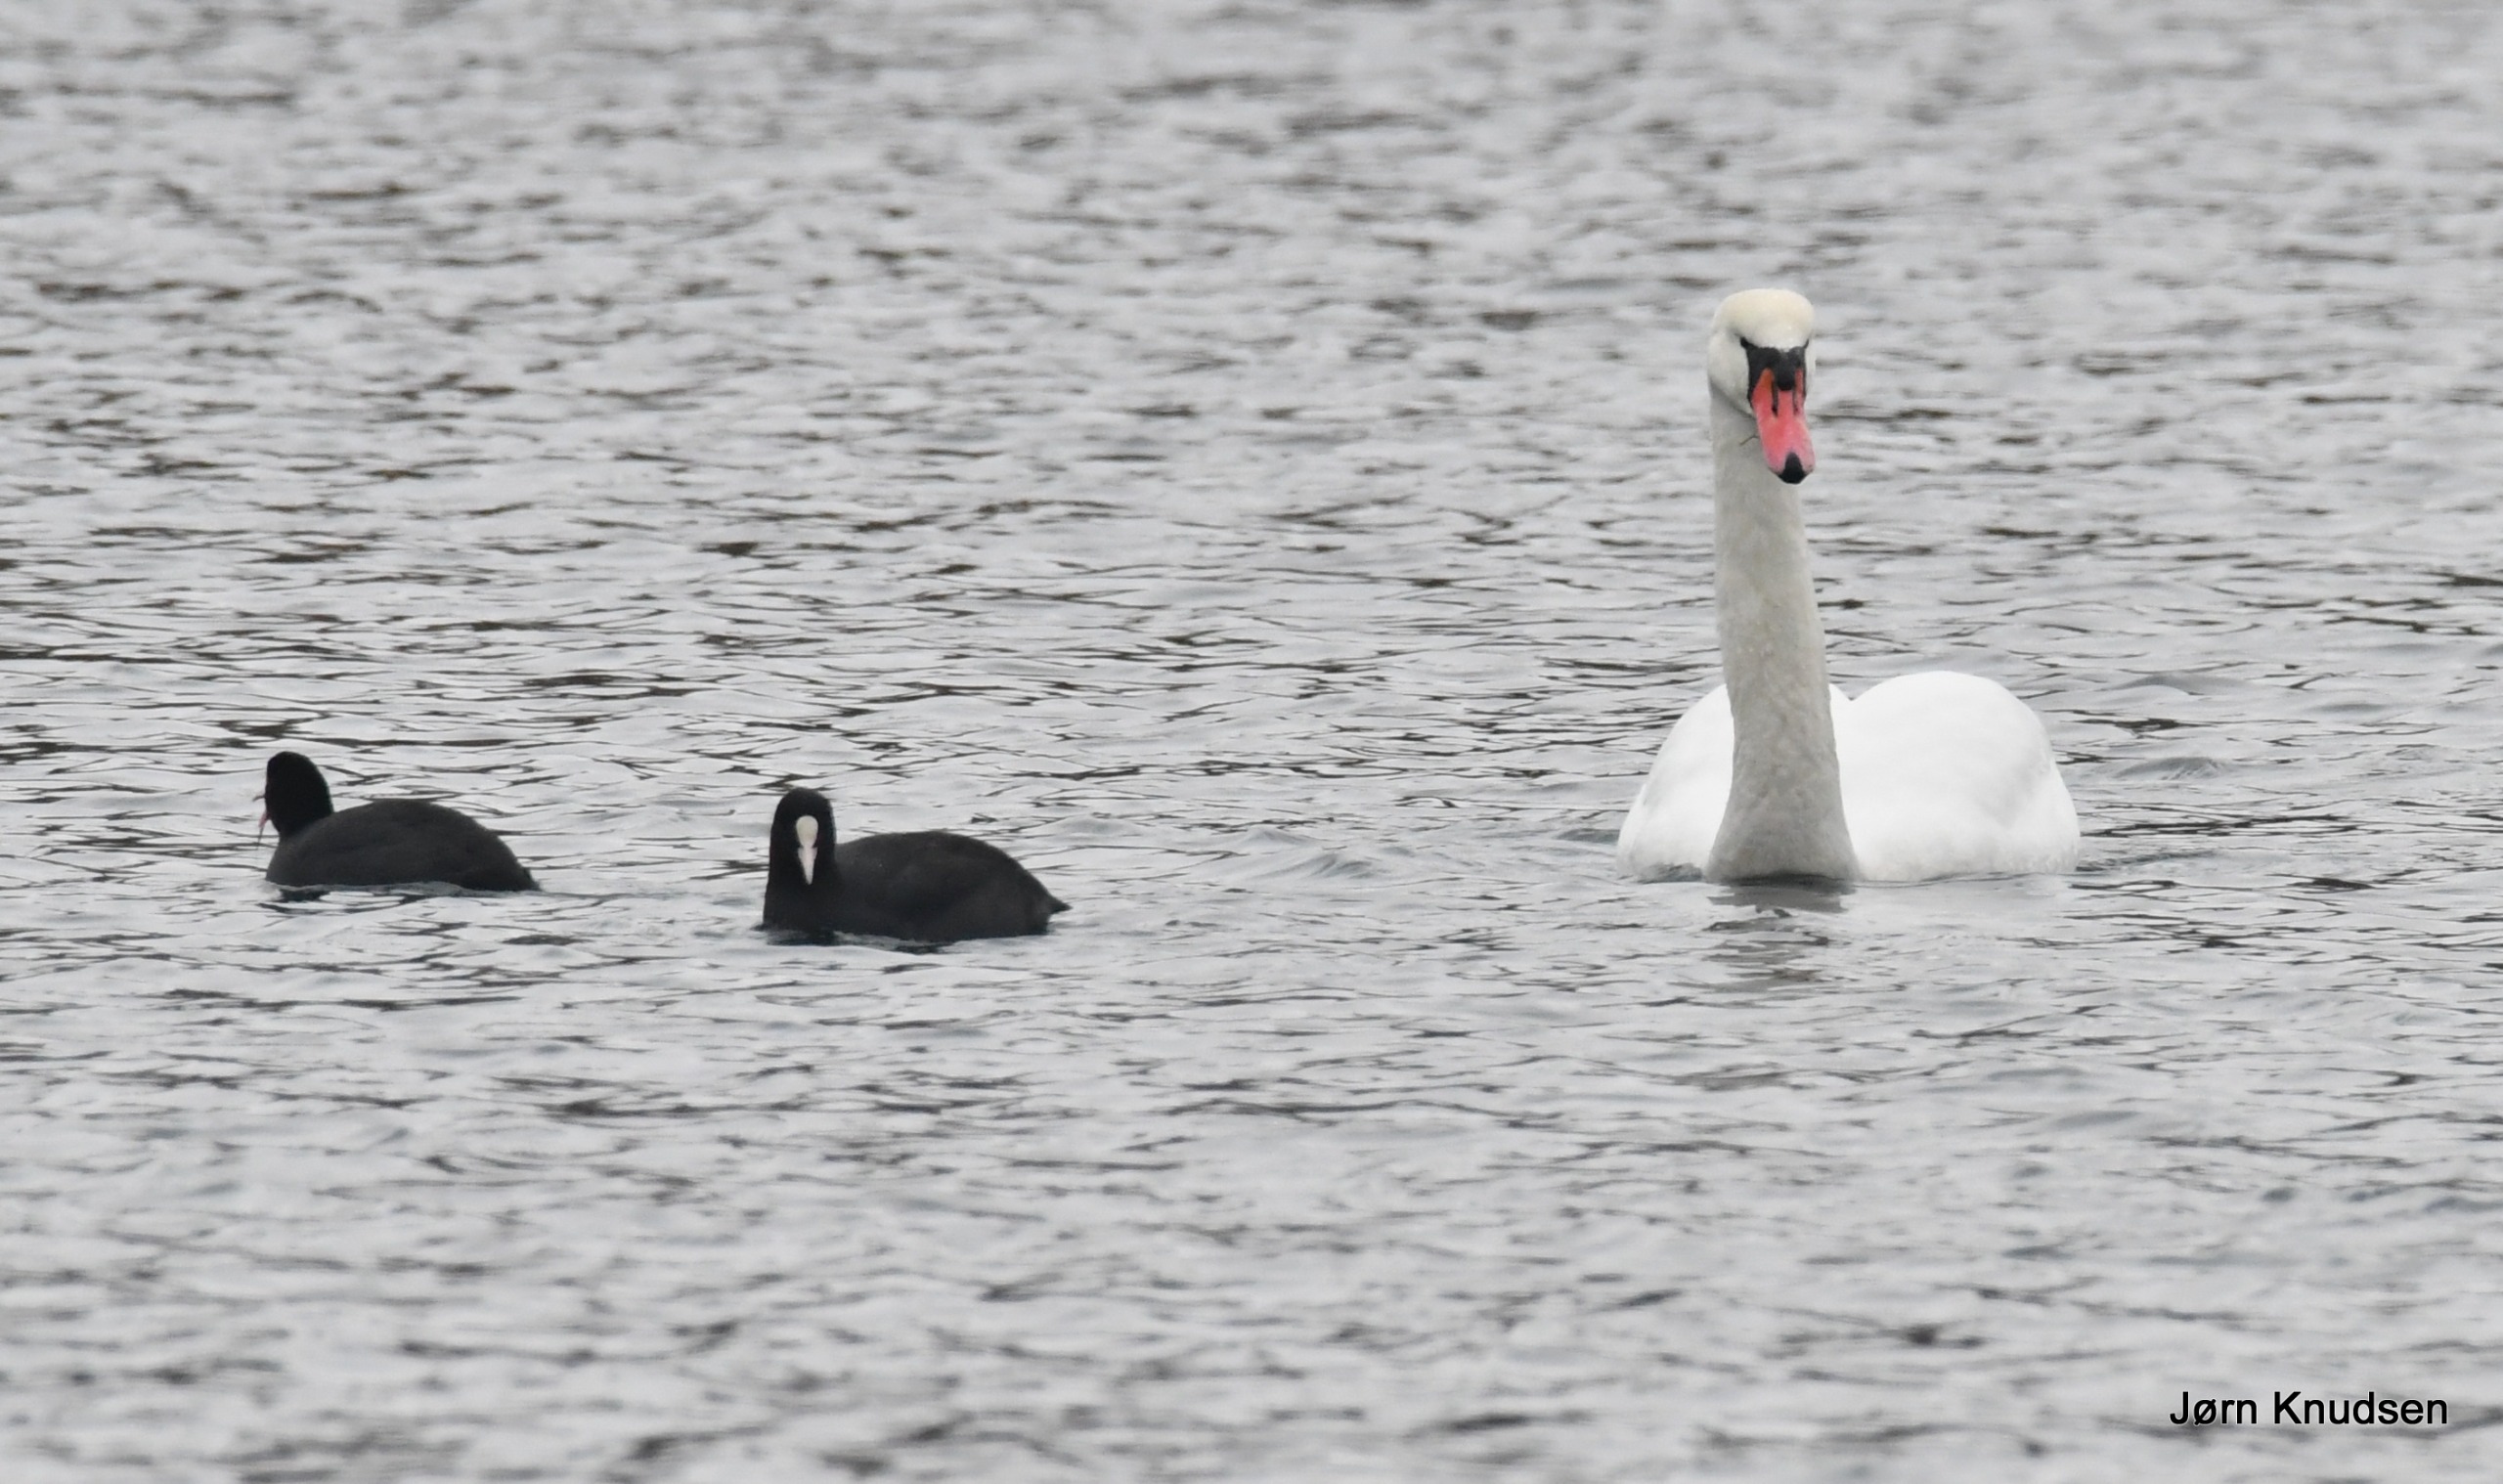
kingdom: Animalia
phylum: Chordata
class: Aves
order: Anseriformes
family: Anatidae
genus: Cygnus
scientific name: Cygnus olor
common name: Knopsvane
